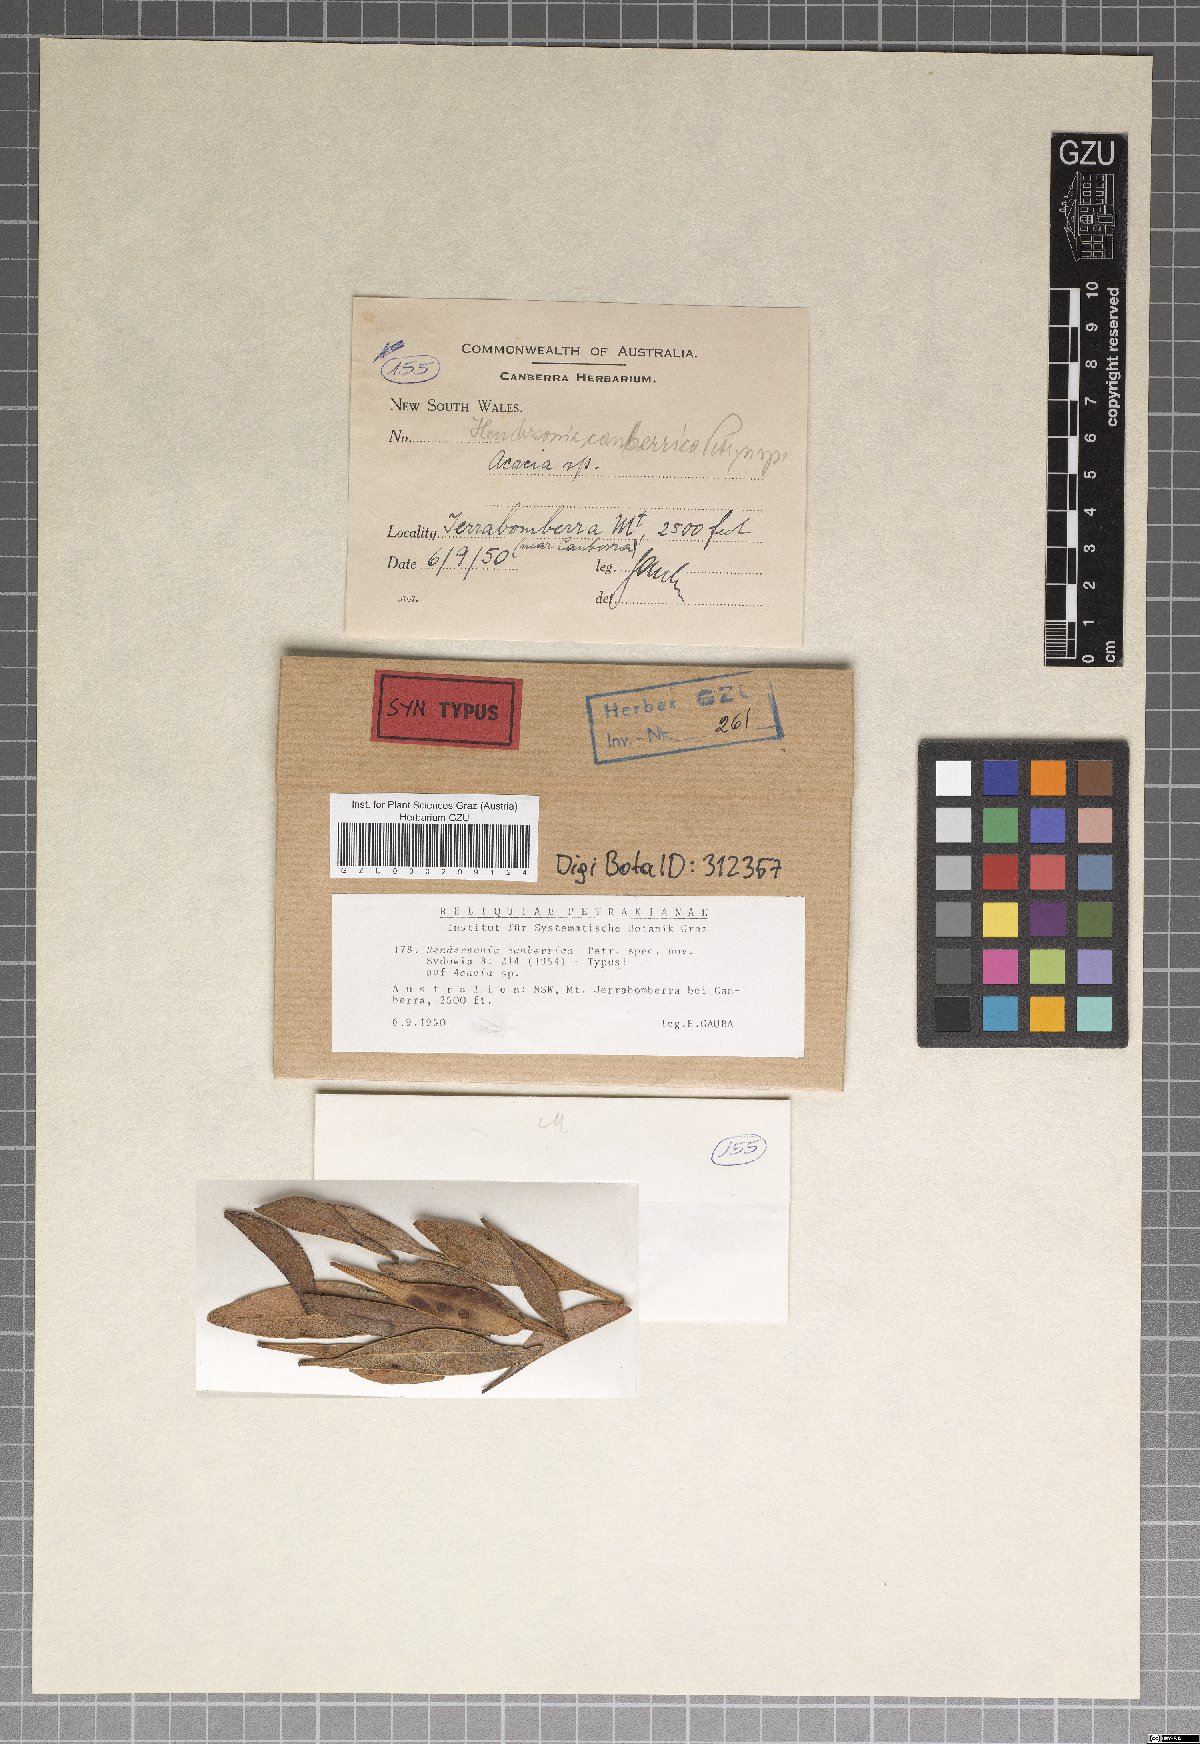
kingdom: Fungi
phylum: Ascomycota
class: Dothideomycetes
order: Pleosporales
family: Phaeosphaeriaceae
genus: Hendersonia
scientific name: Hendersonia canberrica
